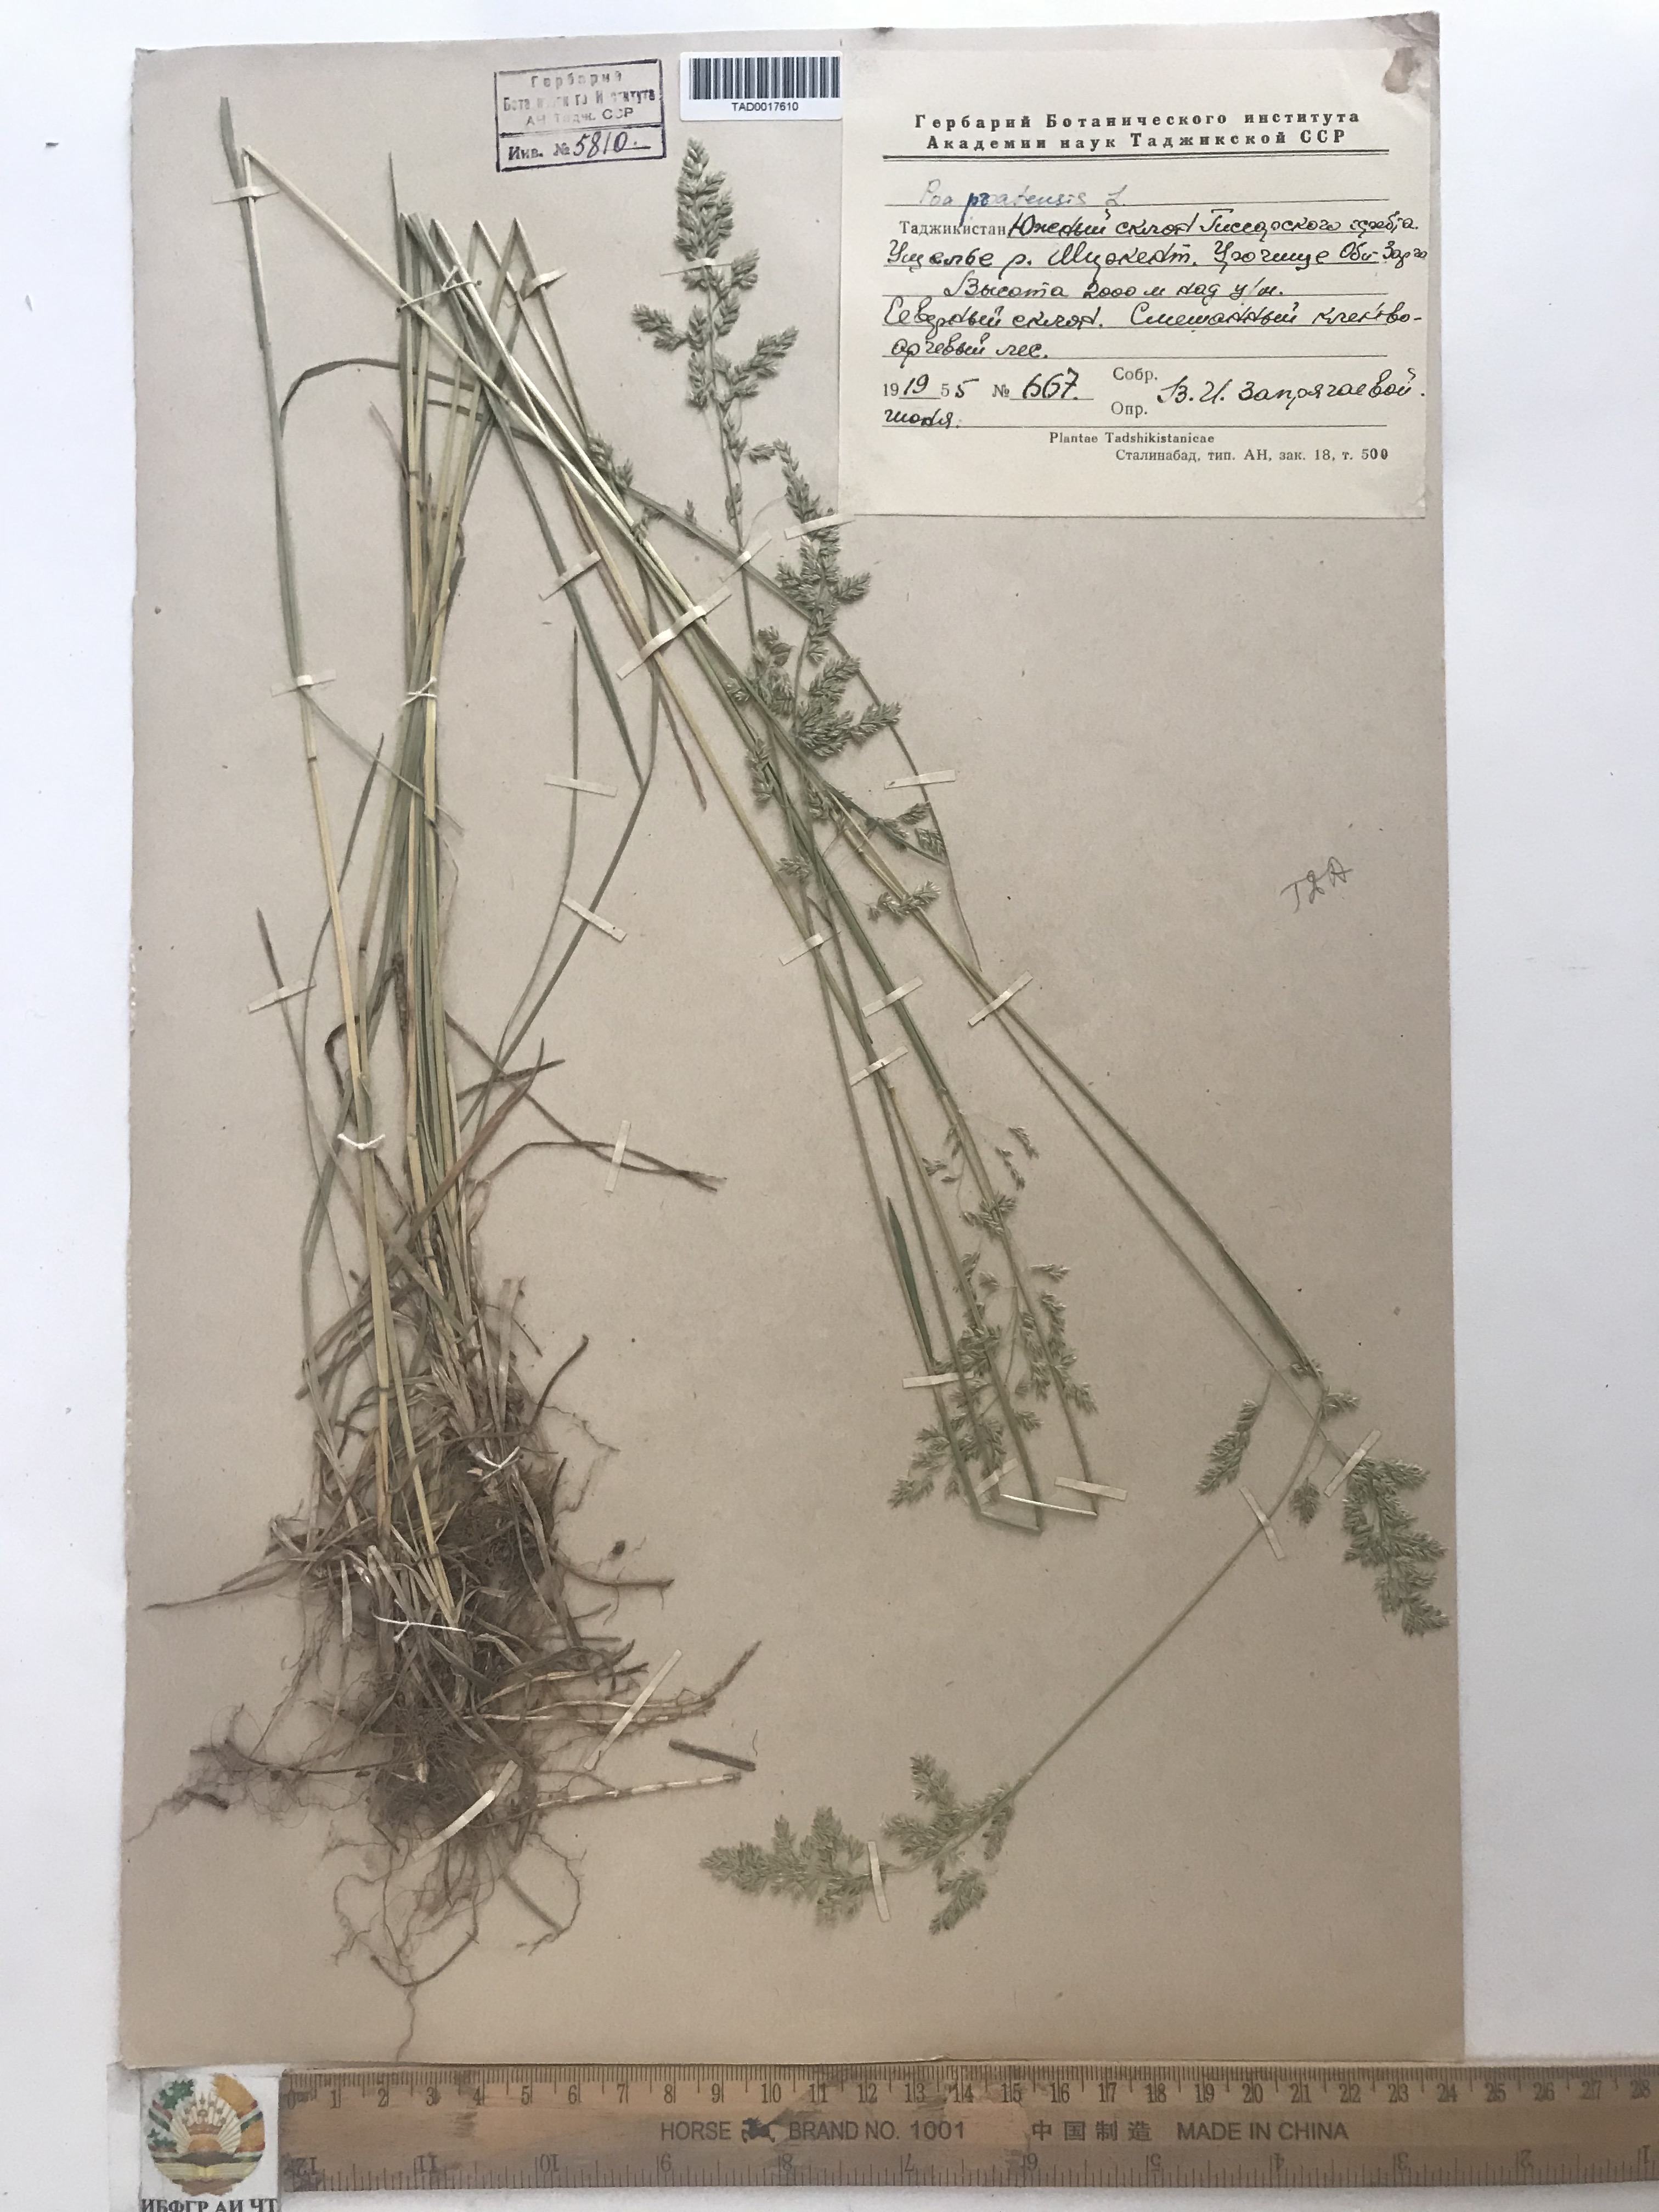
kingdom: Plantae
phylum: Tracheophyta
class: Liliopsida
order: Poales
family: Poaceae
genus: Poa
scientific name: Poa pratensis
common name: Kentucky bluegrass
